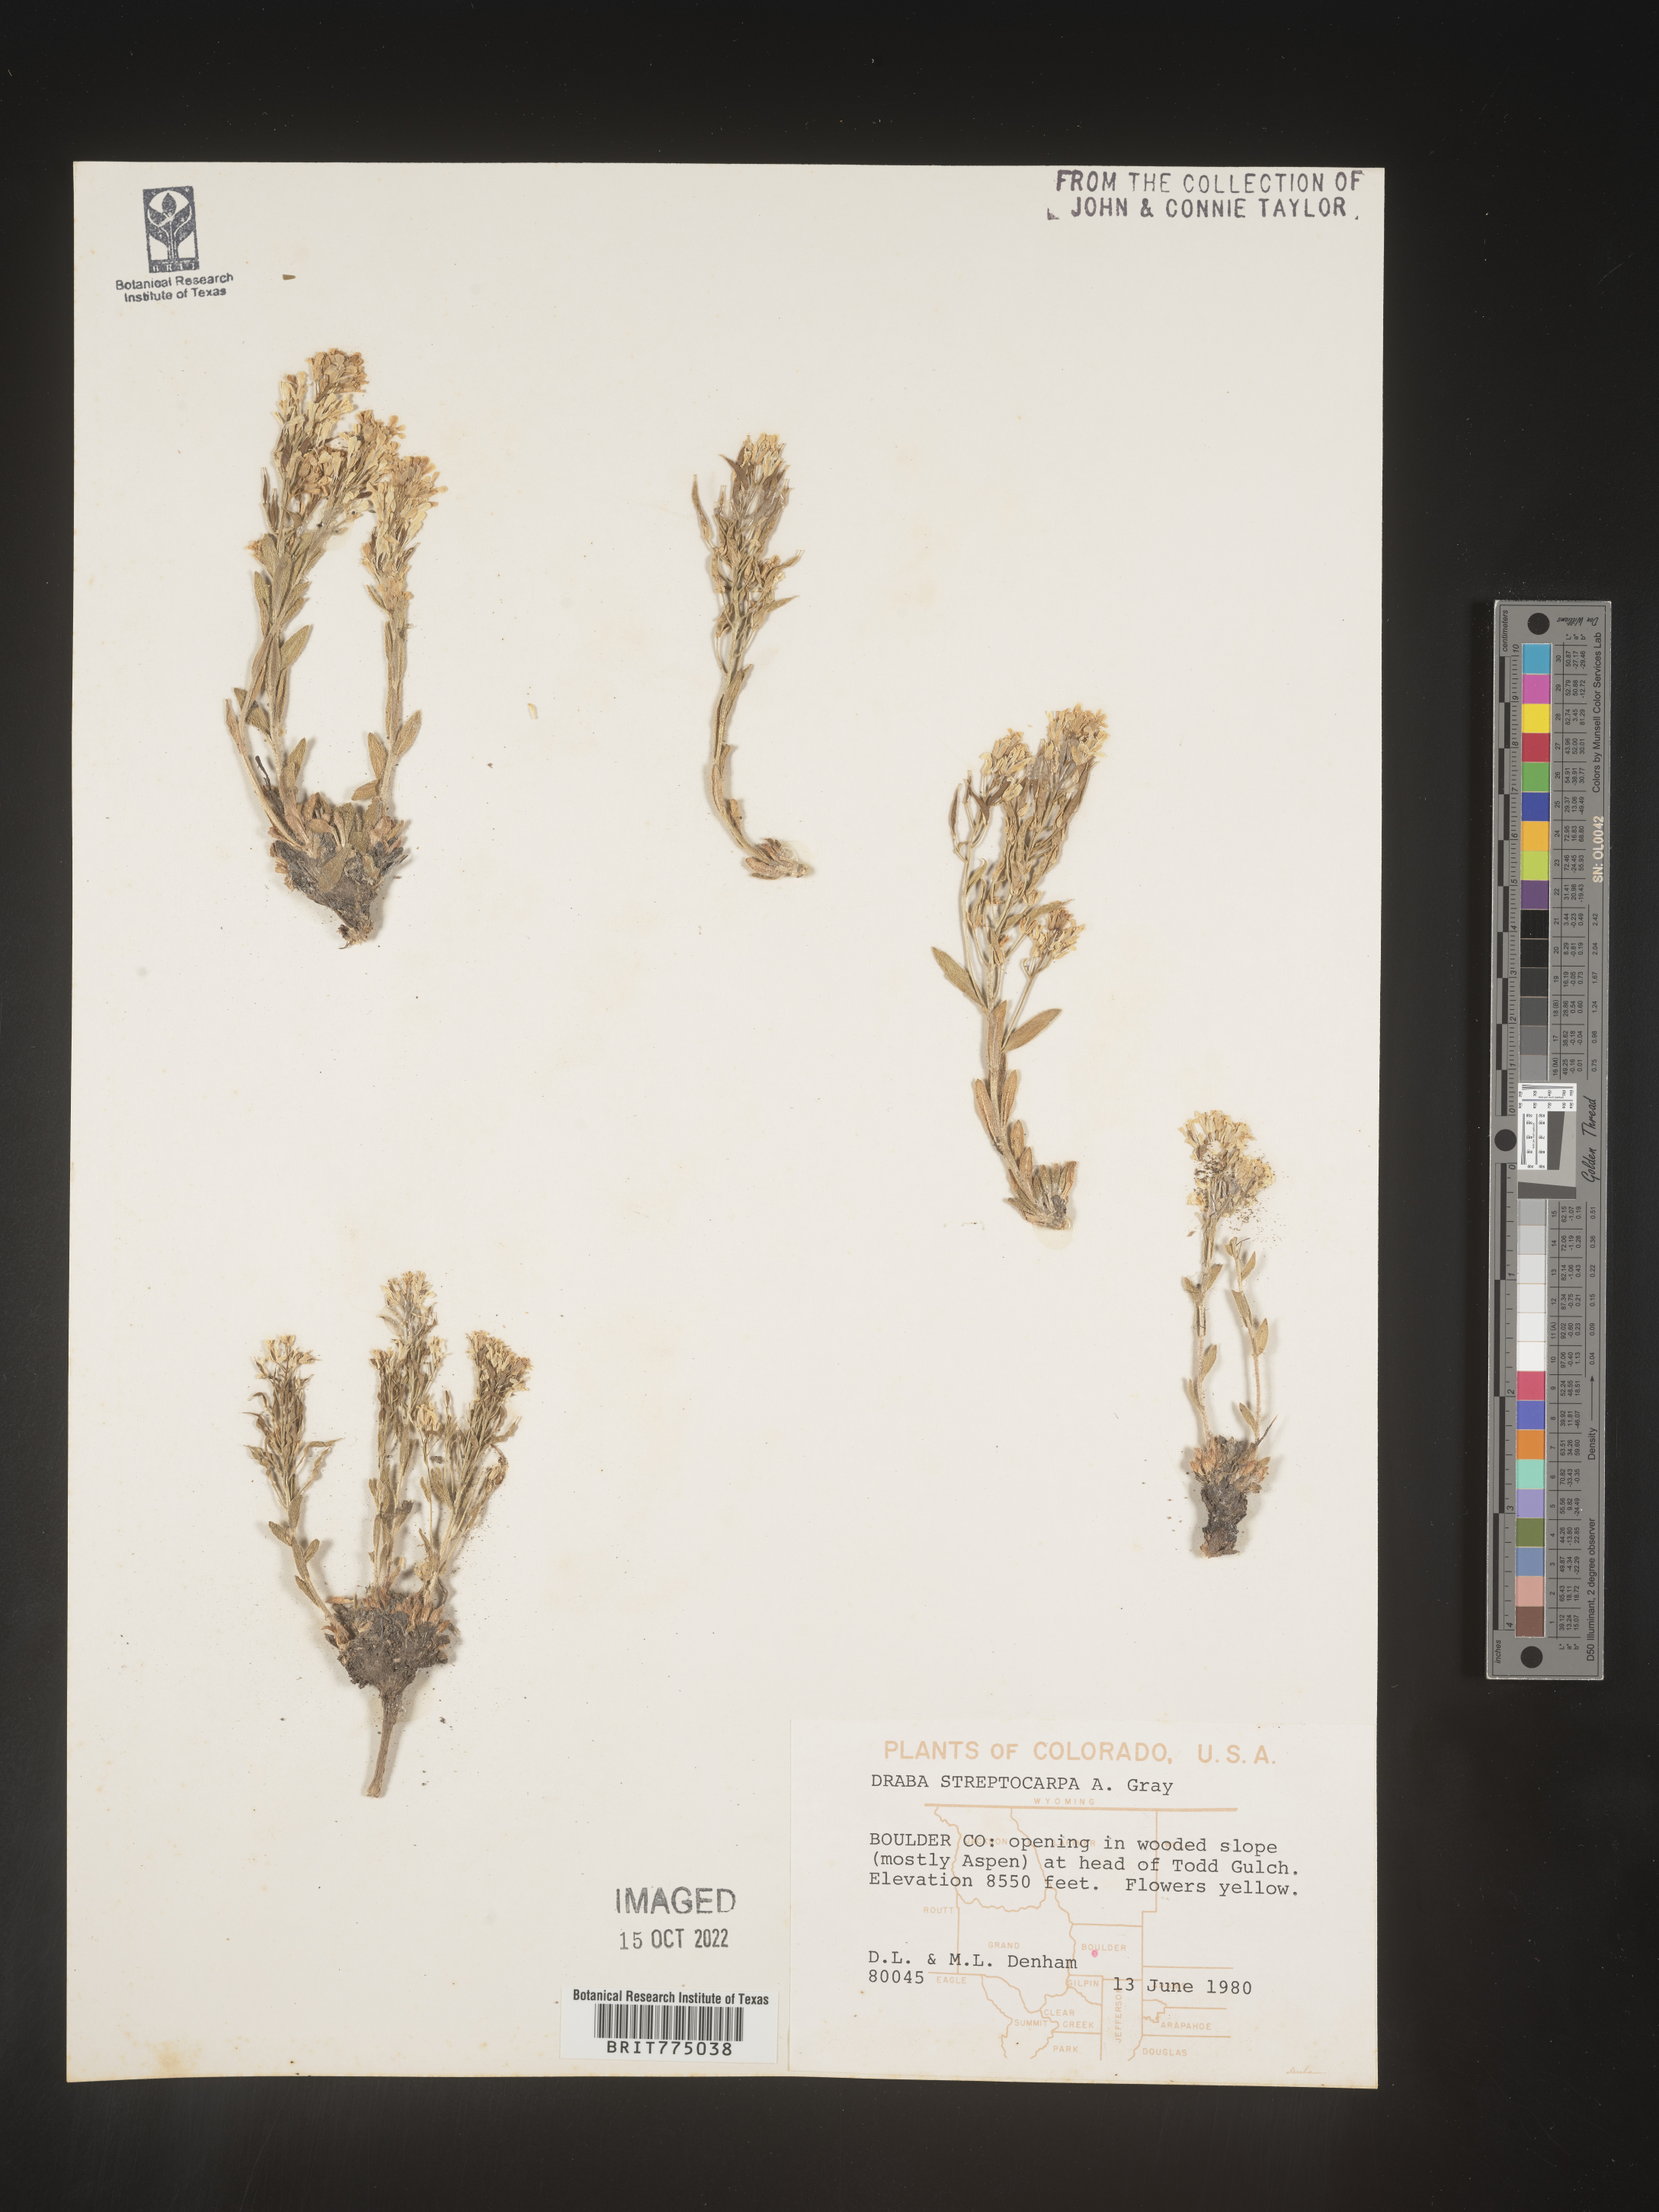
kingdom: Plantae
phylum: Tracheophyta
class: Magnoliopsida
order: Brassicales
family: Brassicaceae
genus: Draba
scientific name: Draba
